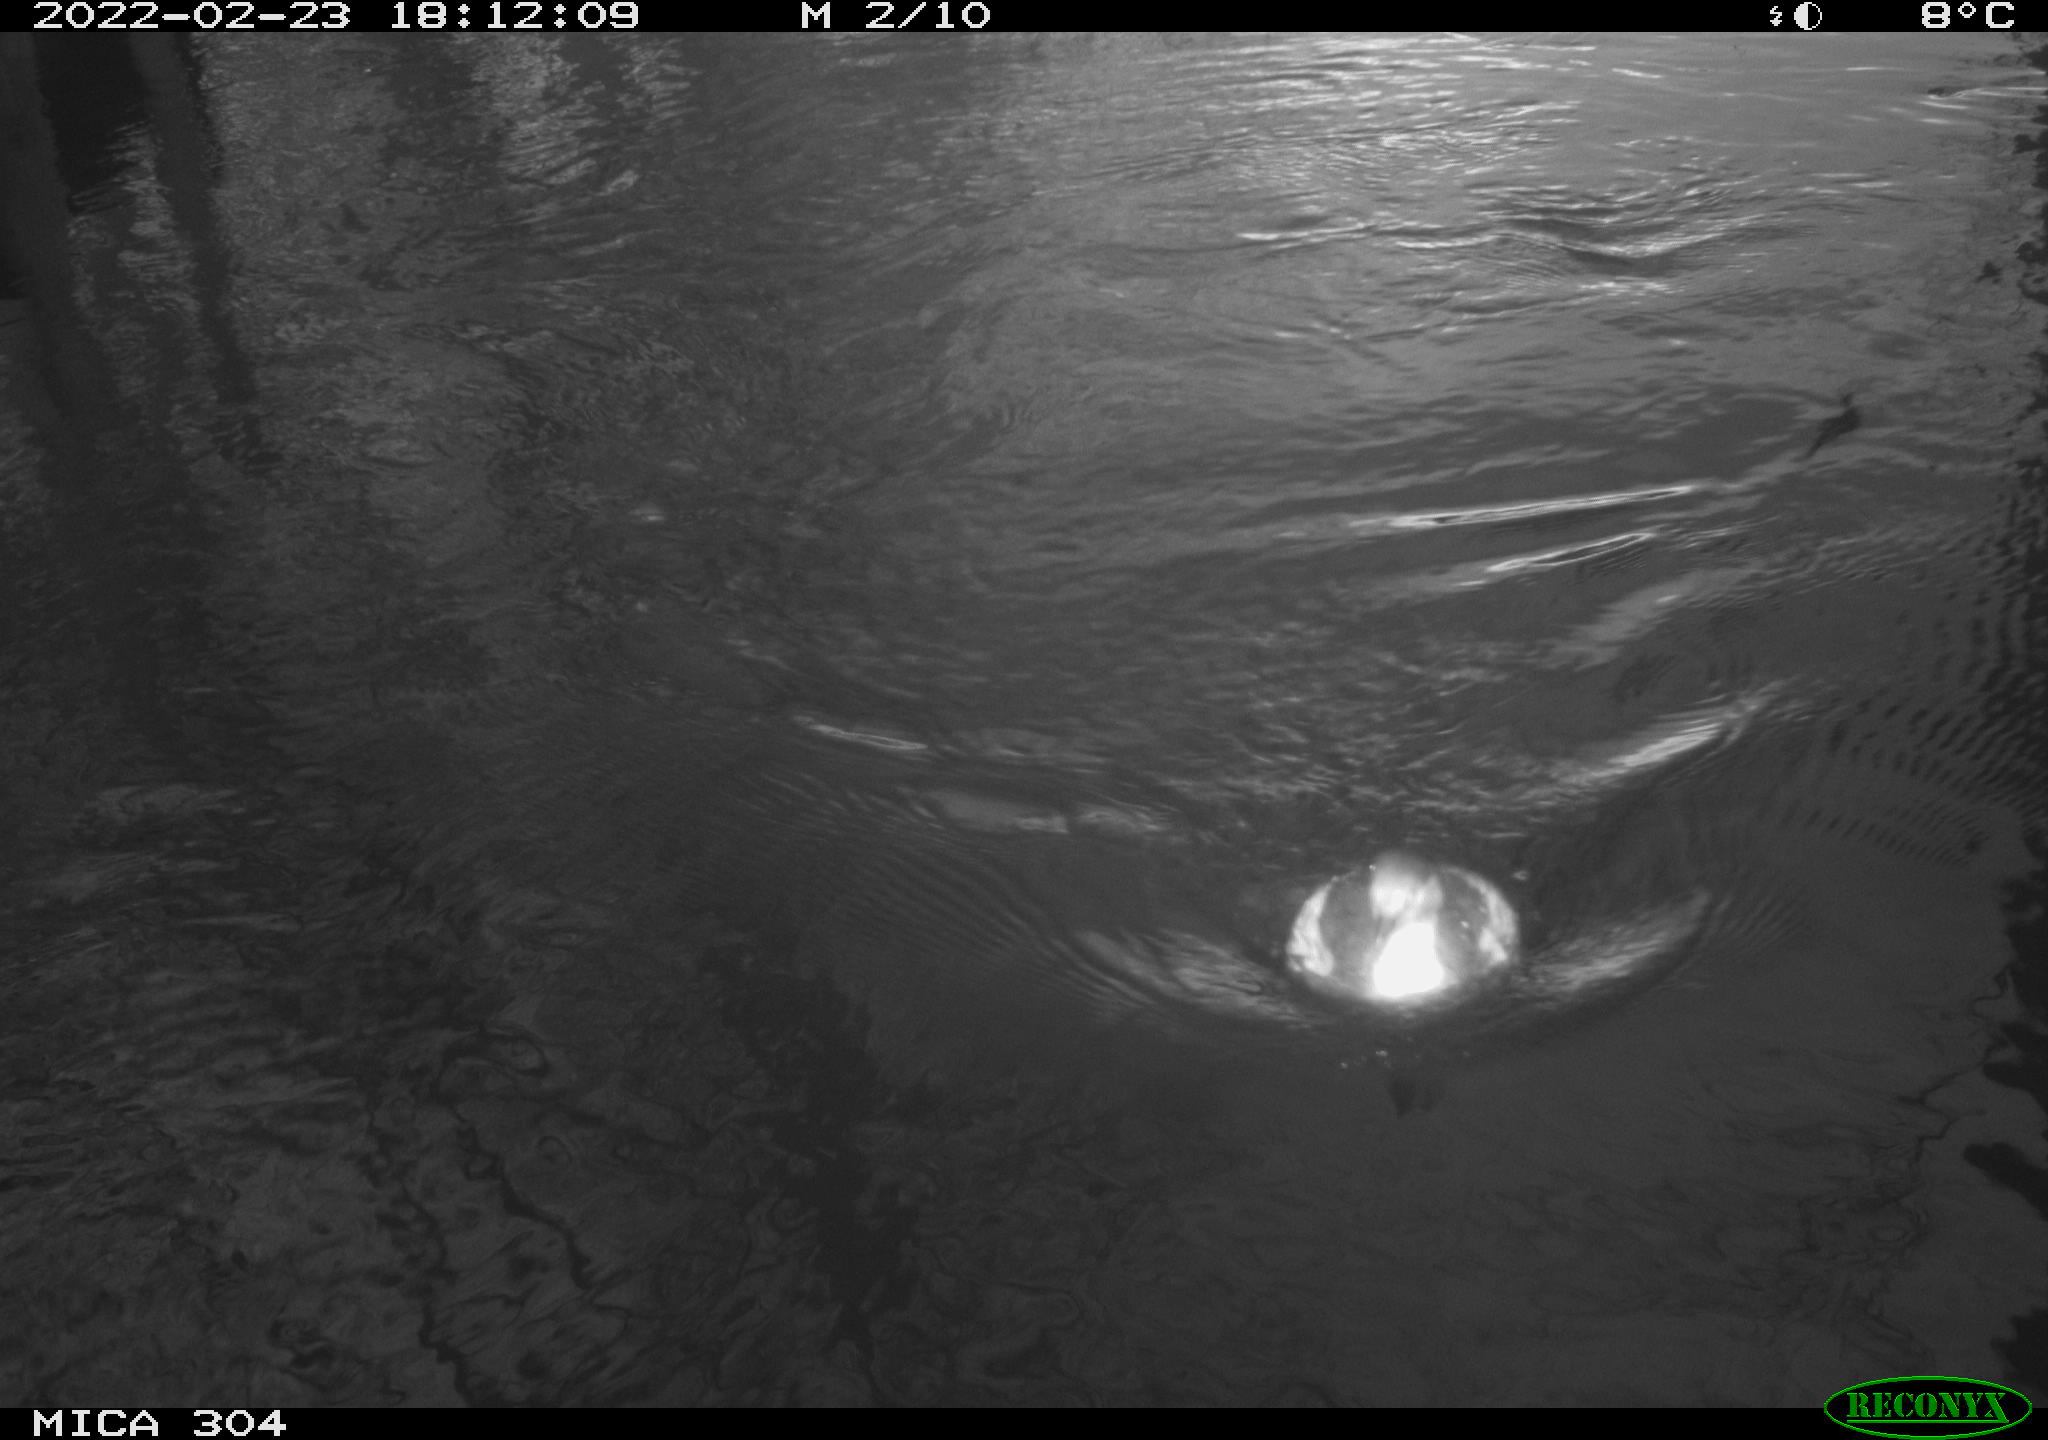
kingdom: Animalia
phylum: Chordata
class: Aves
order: Podicipediformes
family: Podicipedidae
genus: Tachybaptus
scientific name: Tachybaptus ruficollis
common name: Little grebe
